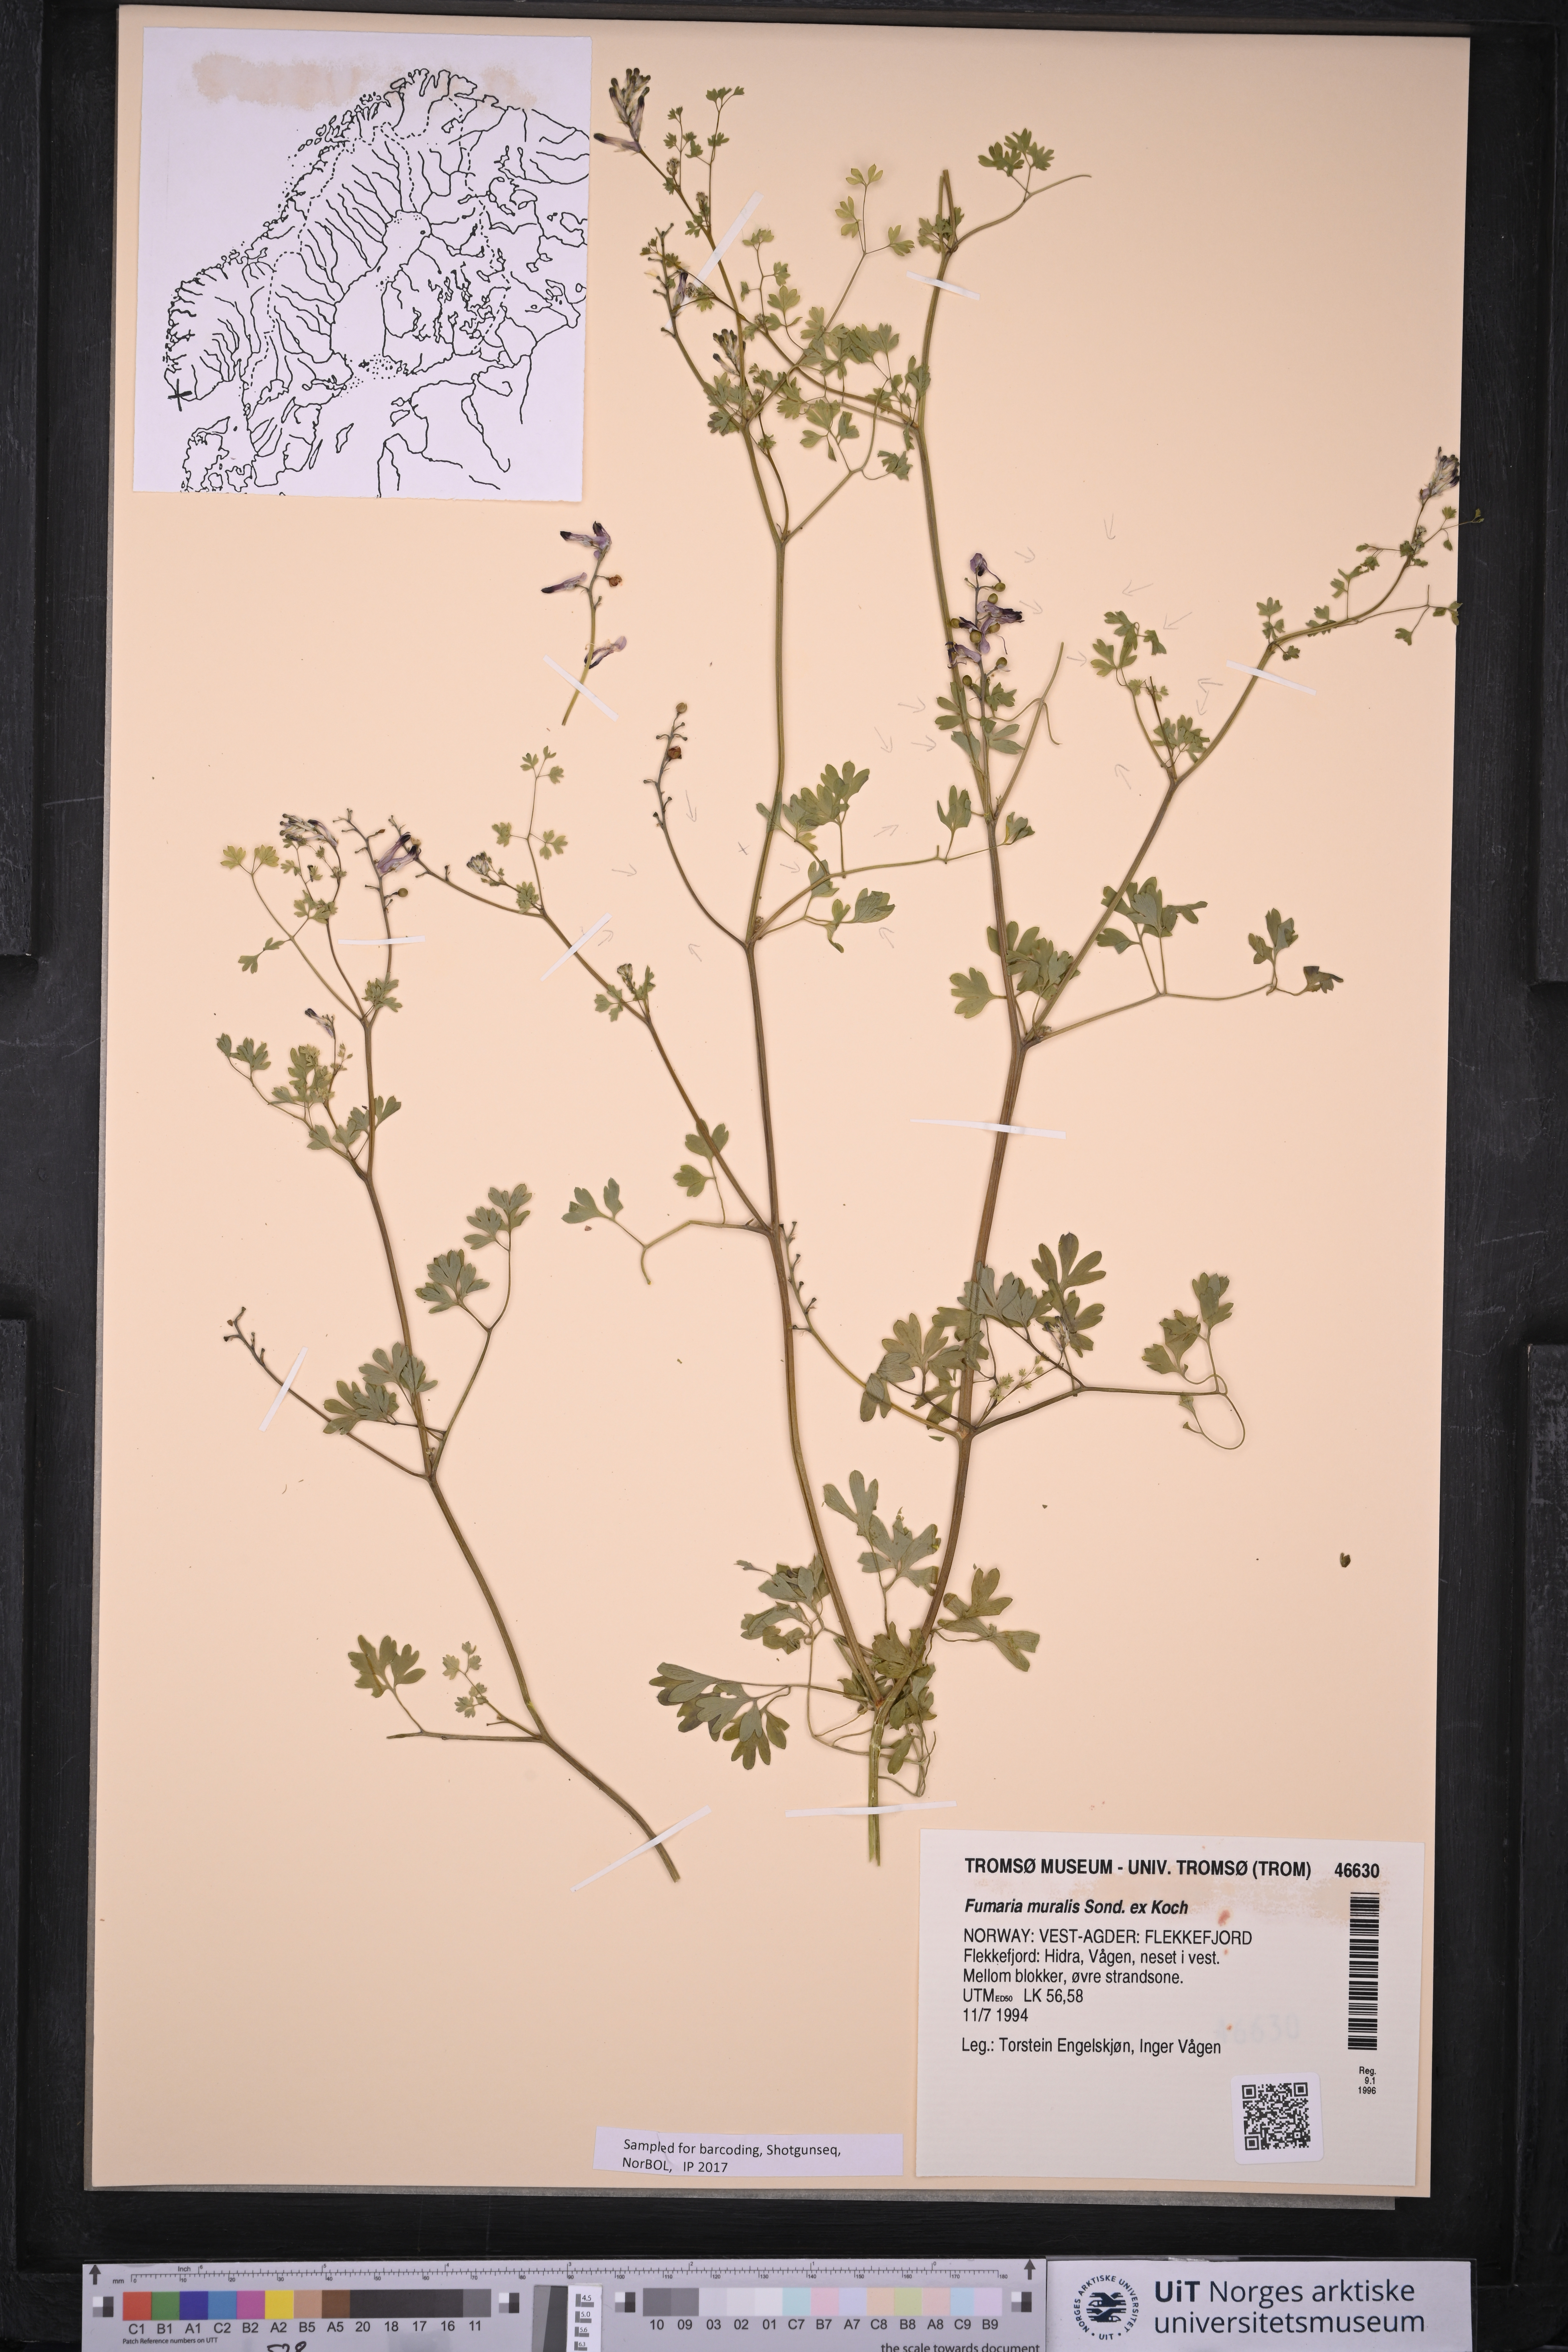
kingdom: Plantae
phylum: Tracheophyta
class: Magnoliopsida
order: Ranunculales
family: Papaveraceae
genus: Fumaria
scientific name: Fumaria muralis
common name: Common ramping-fumitory
